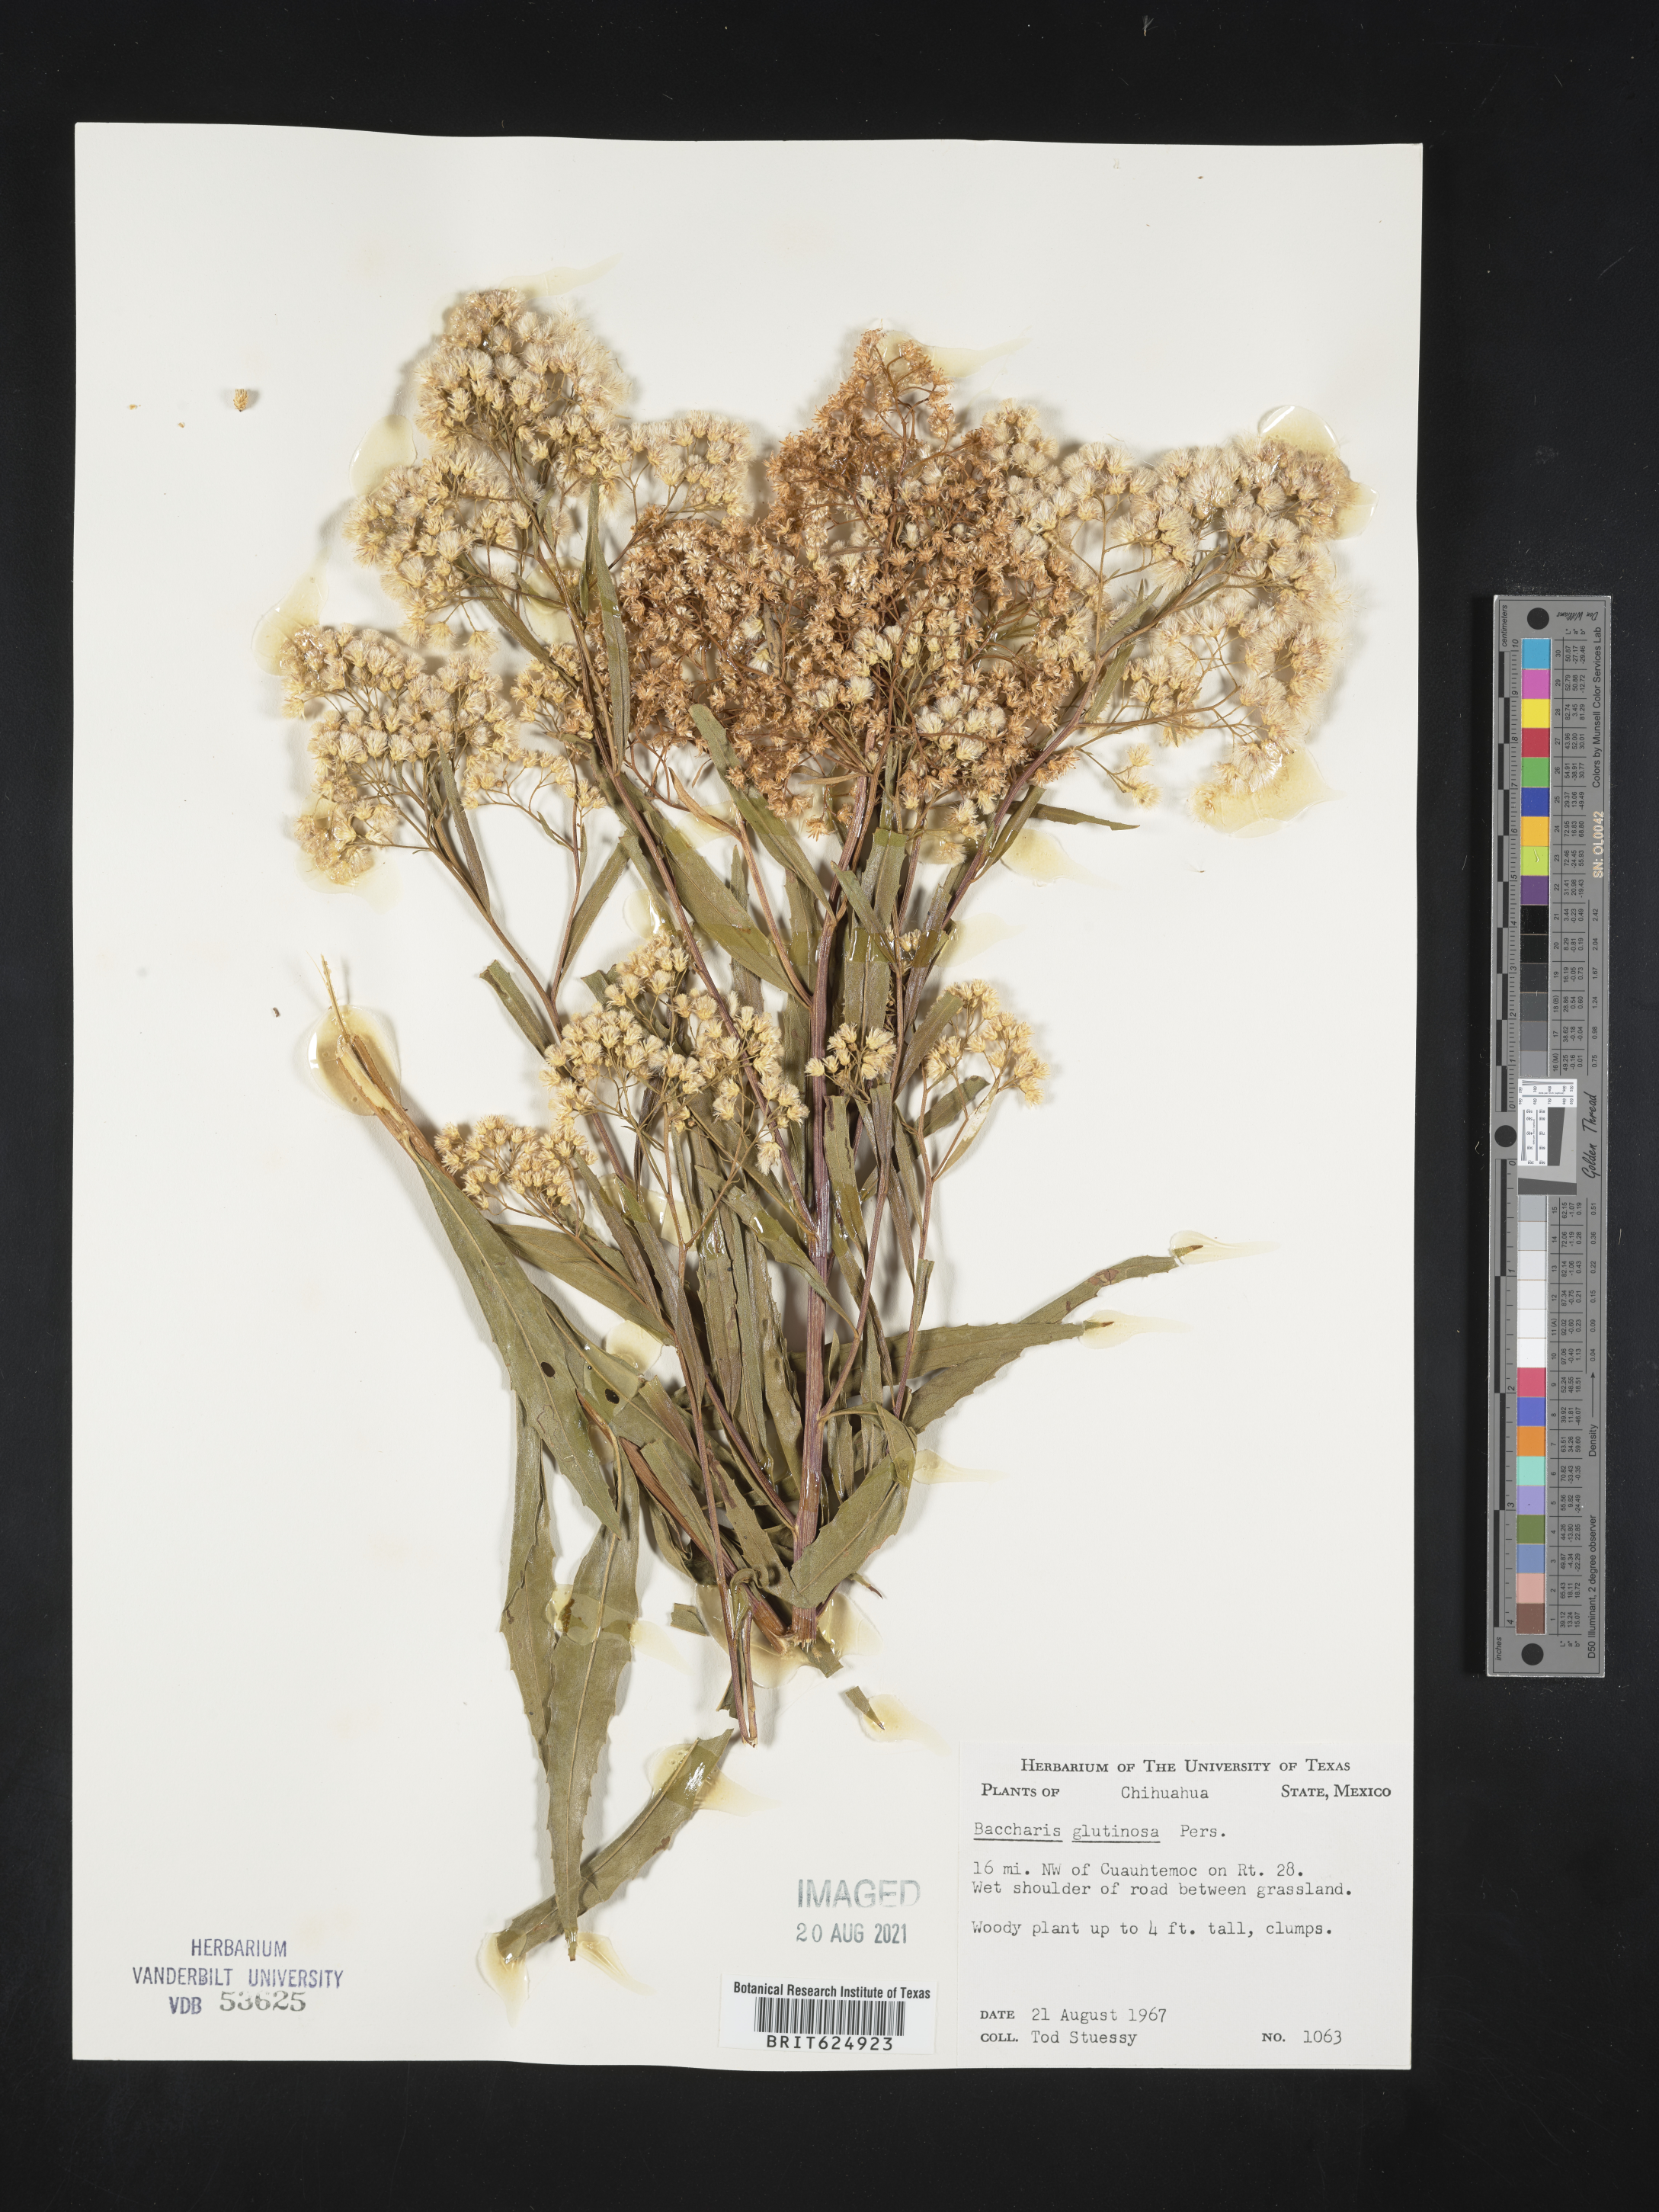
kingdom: Plantae
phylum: Tracheophyta
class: Magnoliopsida
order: Asterales
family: Asteraceae
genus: Baccharis
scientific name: Baccharis
